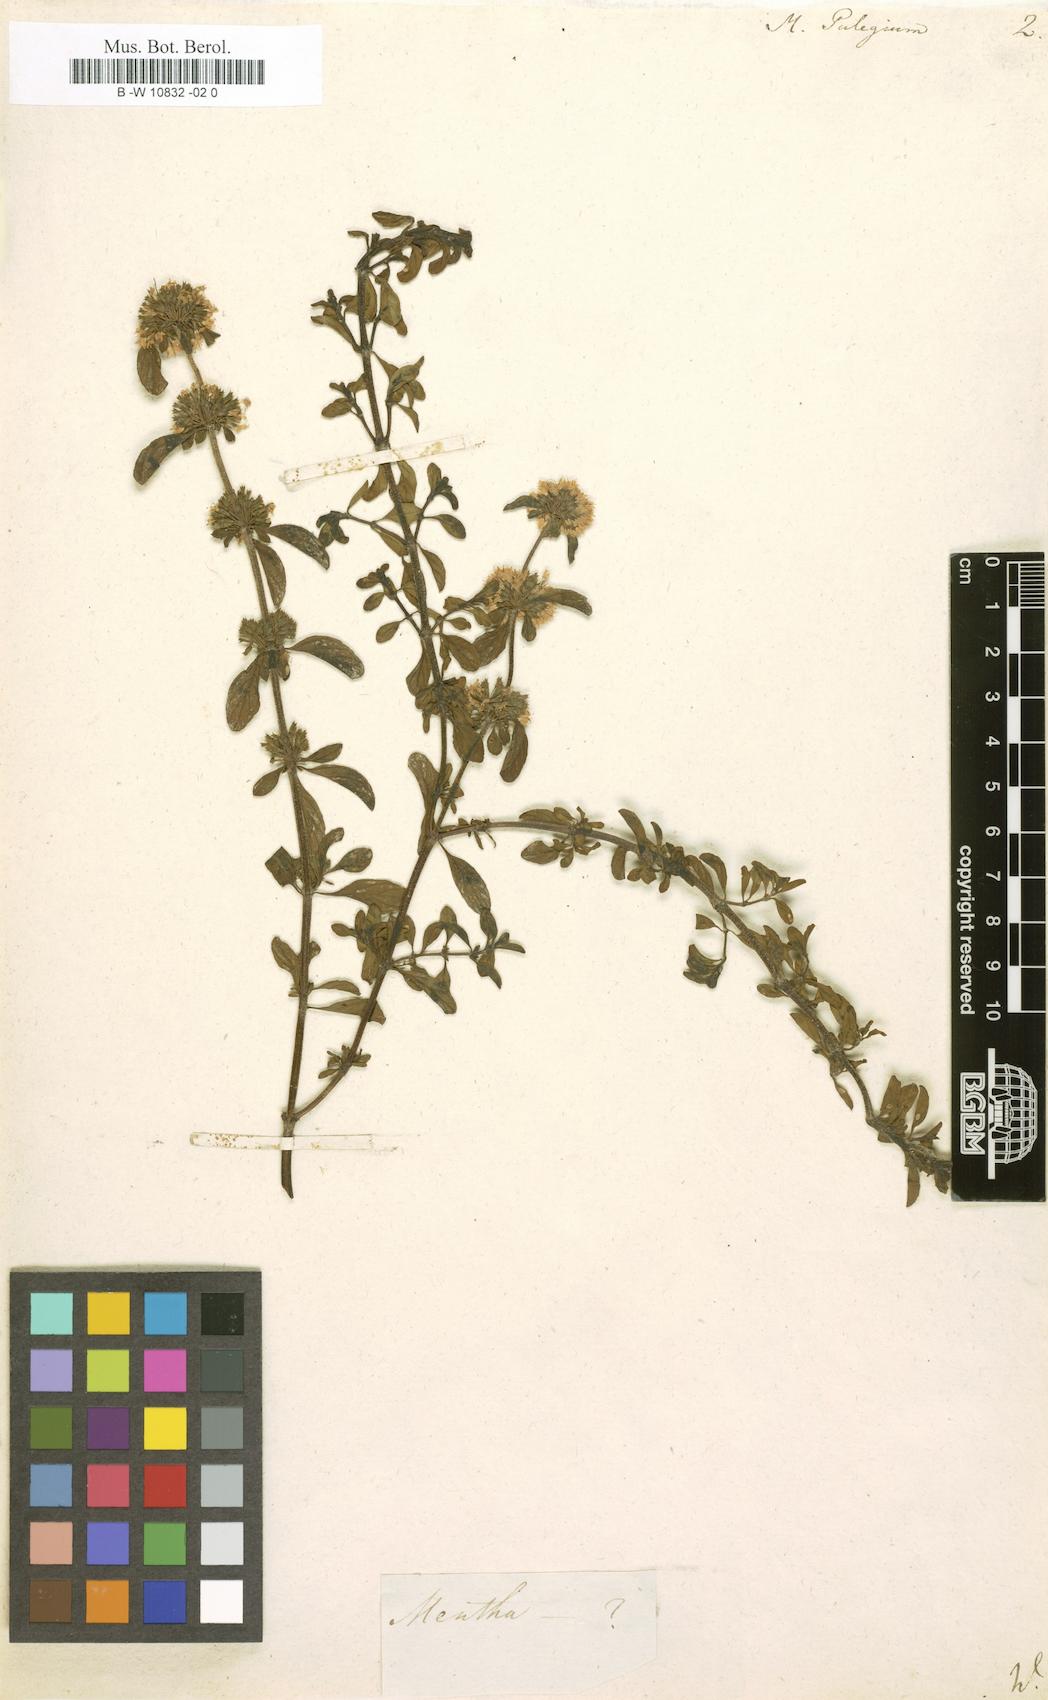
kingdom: Plantae
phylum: Tracheophyta
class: Magnoliopsida
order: Lamiales
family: Lamiaceae
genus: Mentha
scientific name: Mentha pulegium
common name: Pennyroyal
